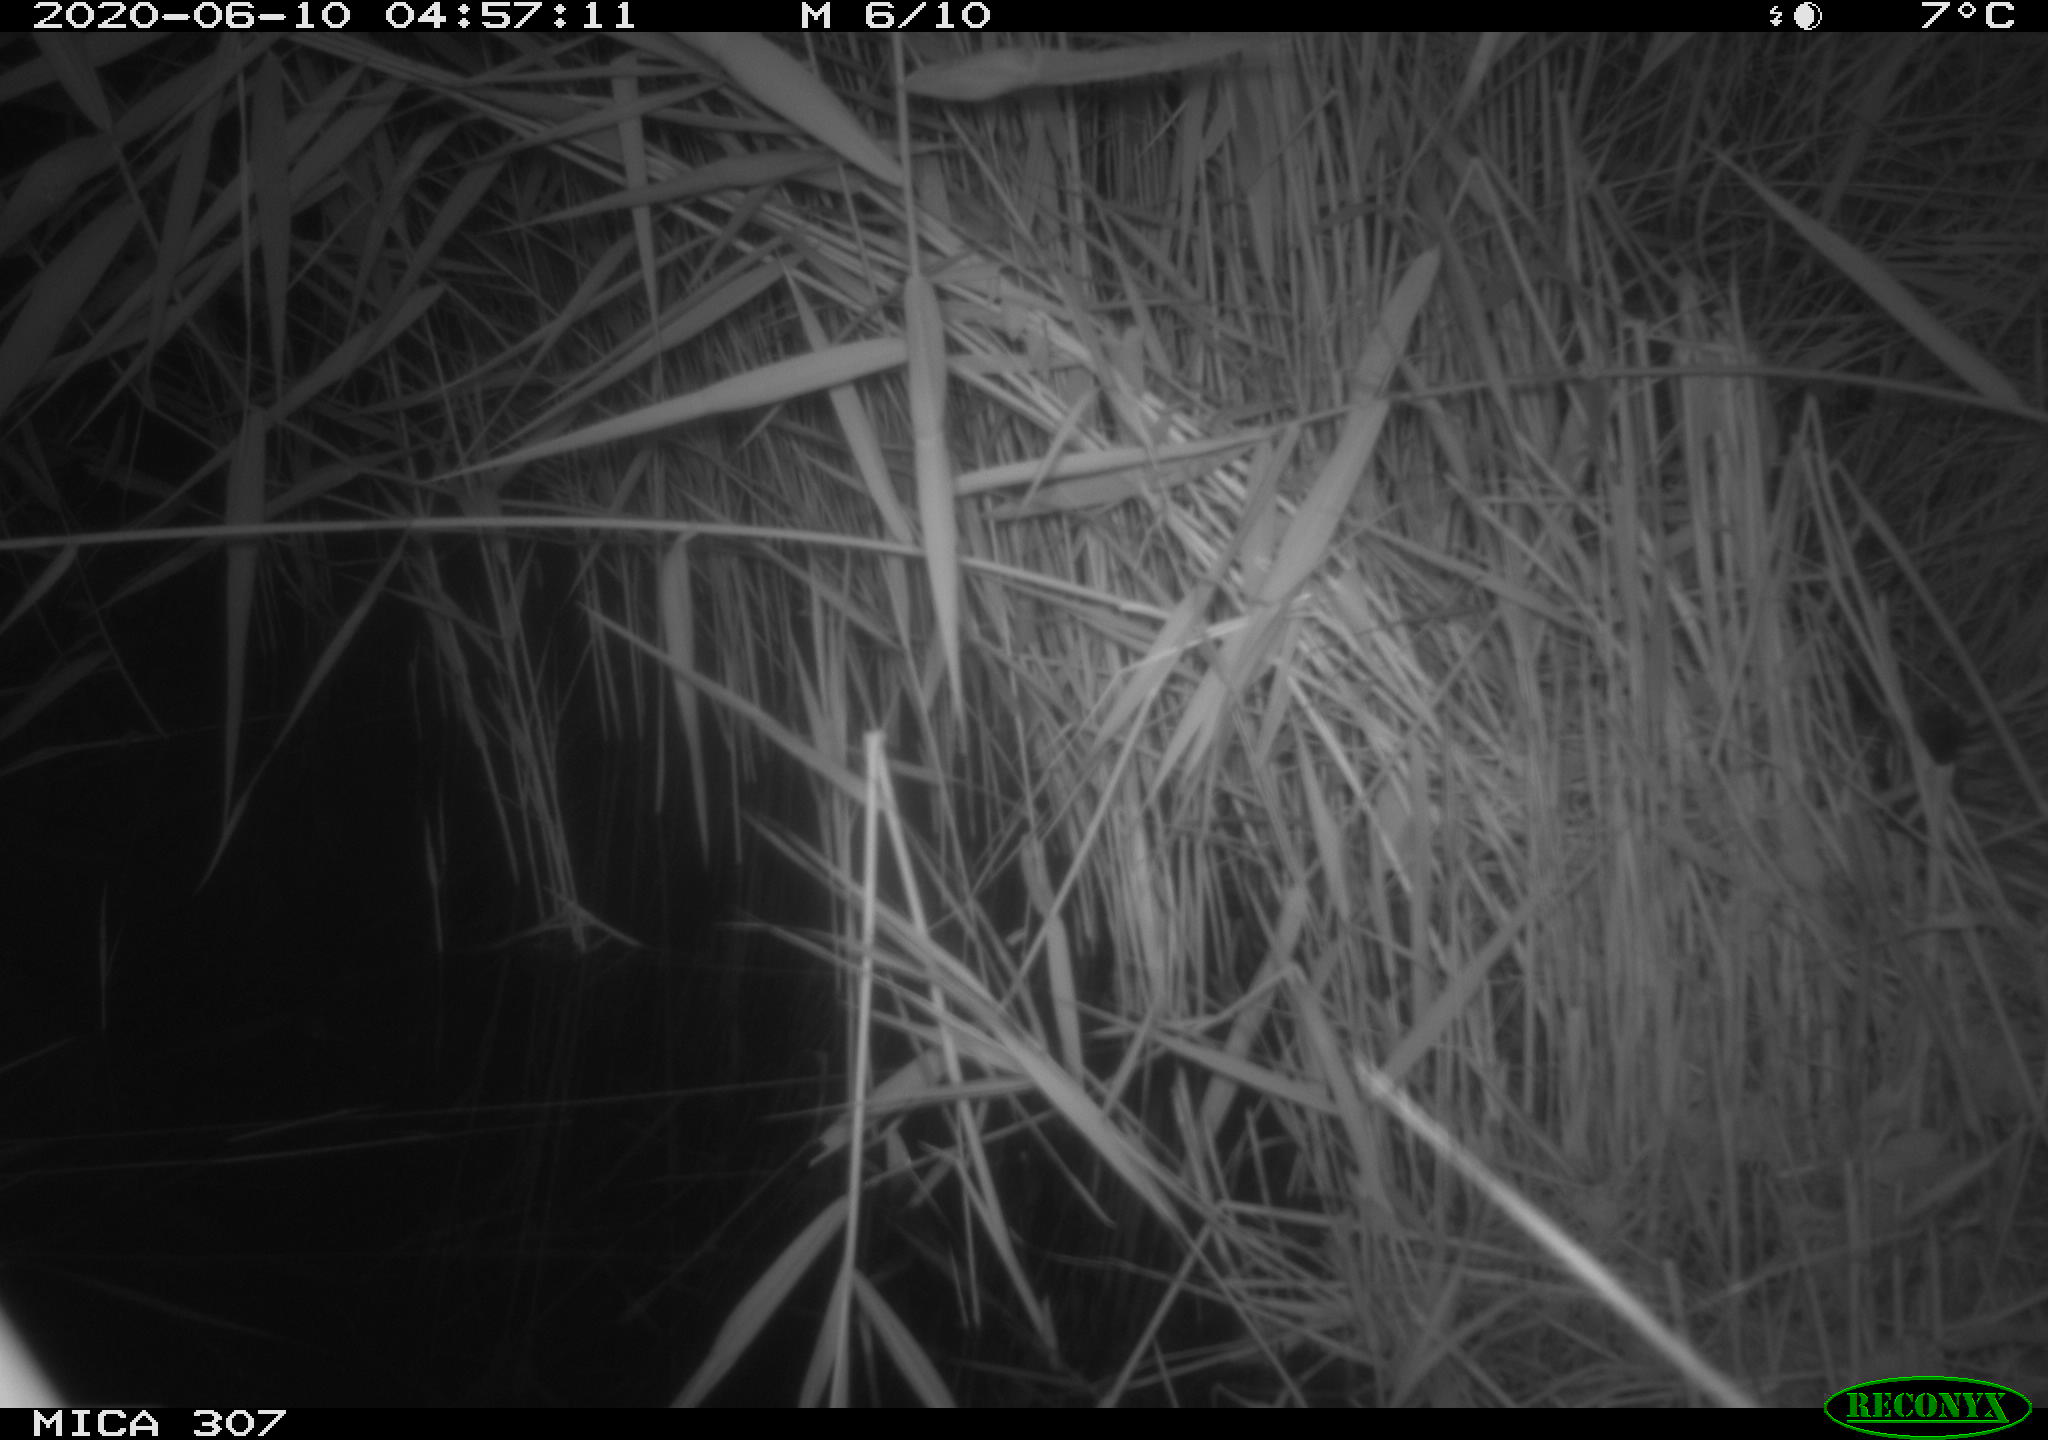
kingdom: Animalia
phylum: Chordata
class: Mammalia
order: Rodentia
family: Muridae
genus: Rattus
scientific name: Rattus norvegicus
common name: Brown rat
